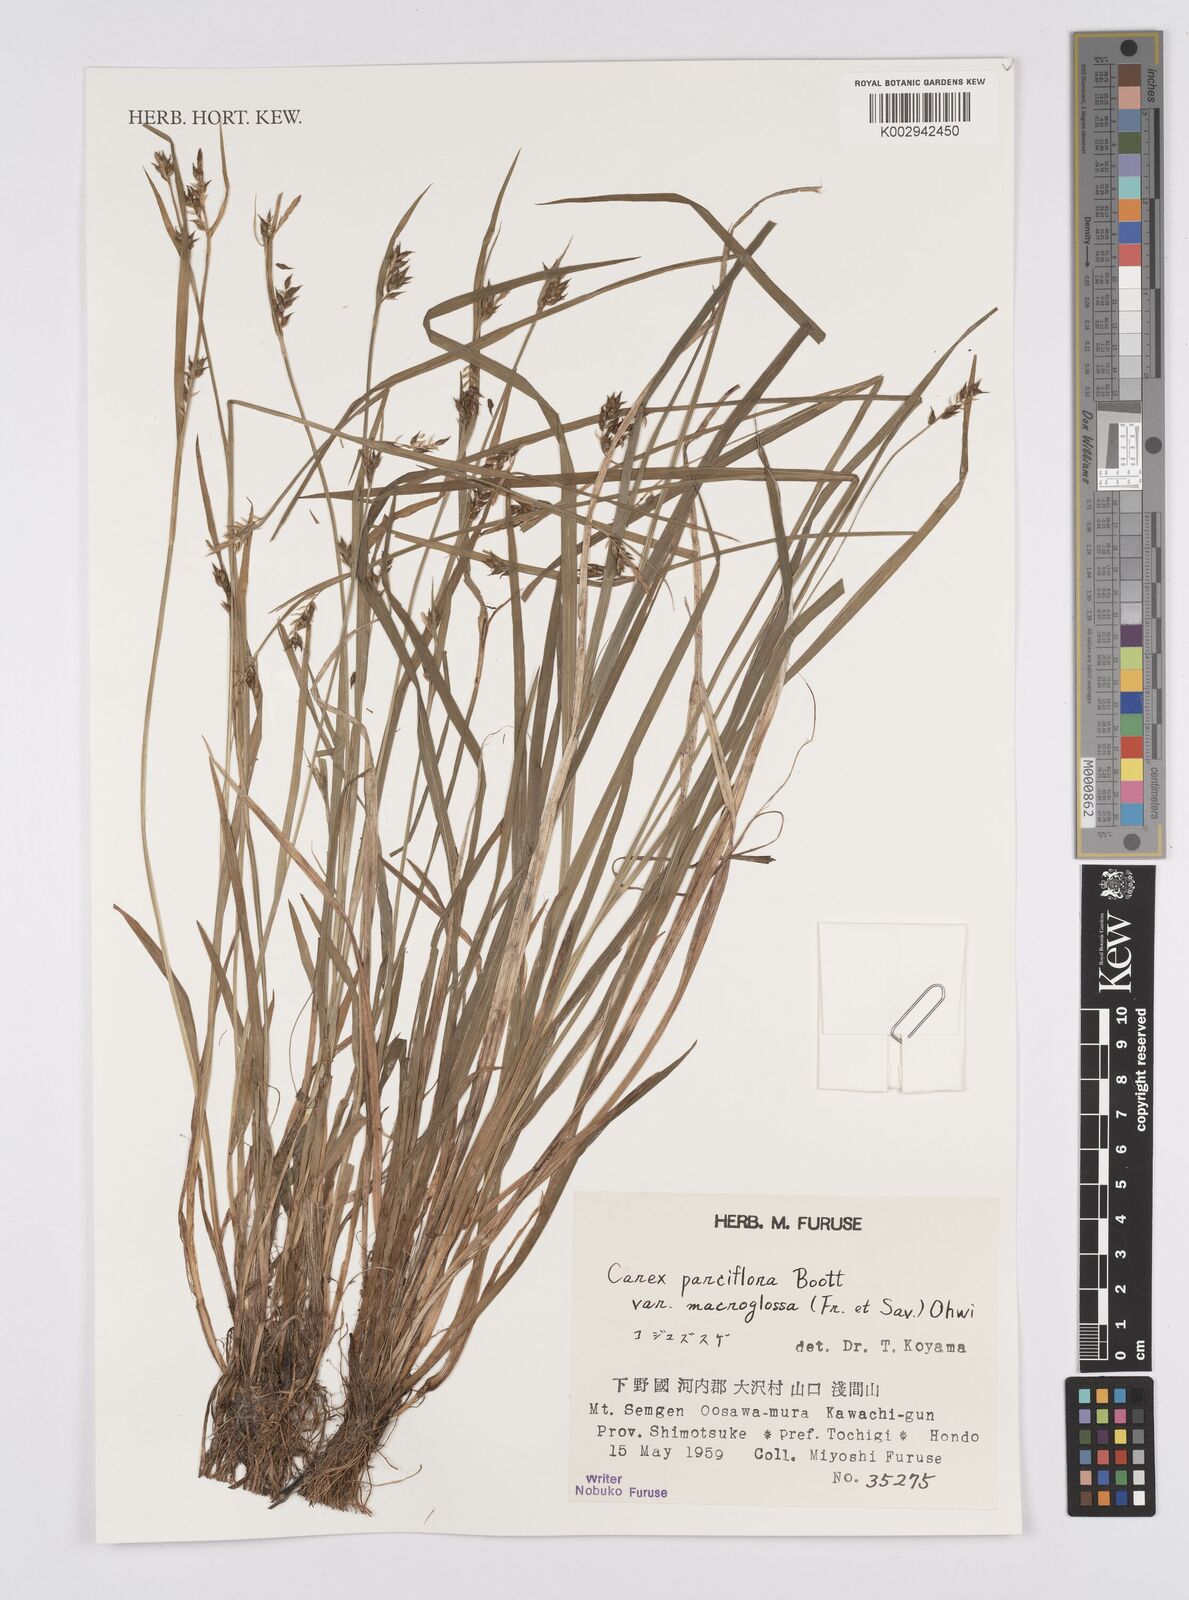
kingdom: Plantae
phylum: Tracheophyta
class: Liliopsida
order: Poales
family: Cyperaceae
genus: Carex
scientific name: Carex jackiana
